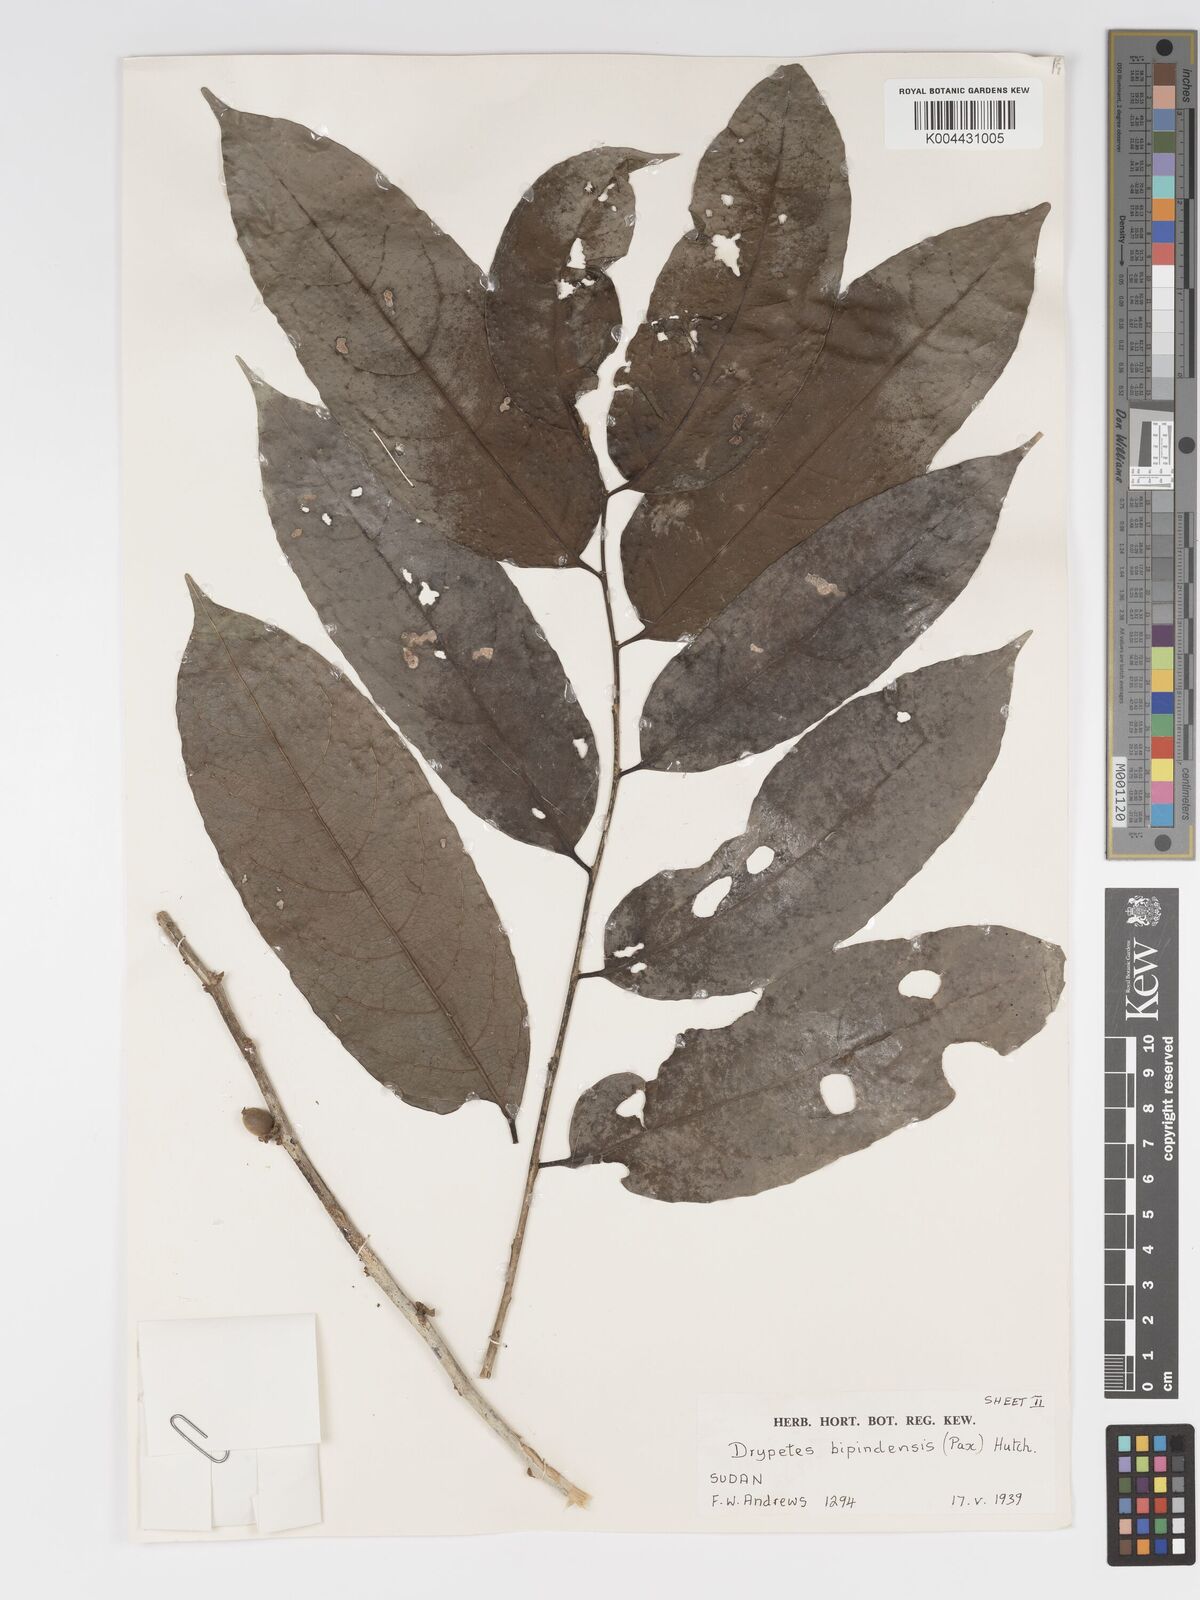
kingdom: Plantae
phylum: Tracheophyta
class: Magnoliopsida
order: Malpighiales
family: Putranjivaceae
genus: Drypetes
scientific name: Drypetes bipindensis
